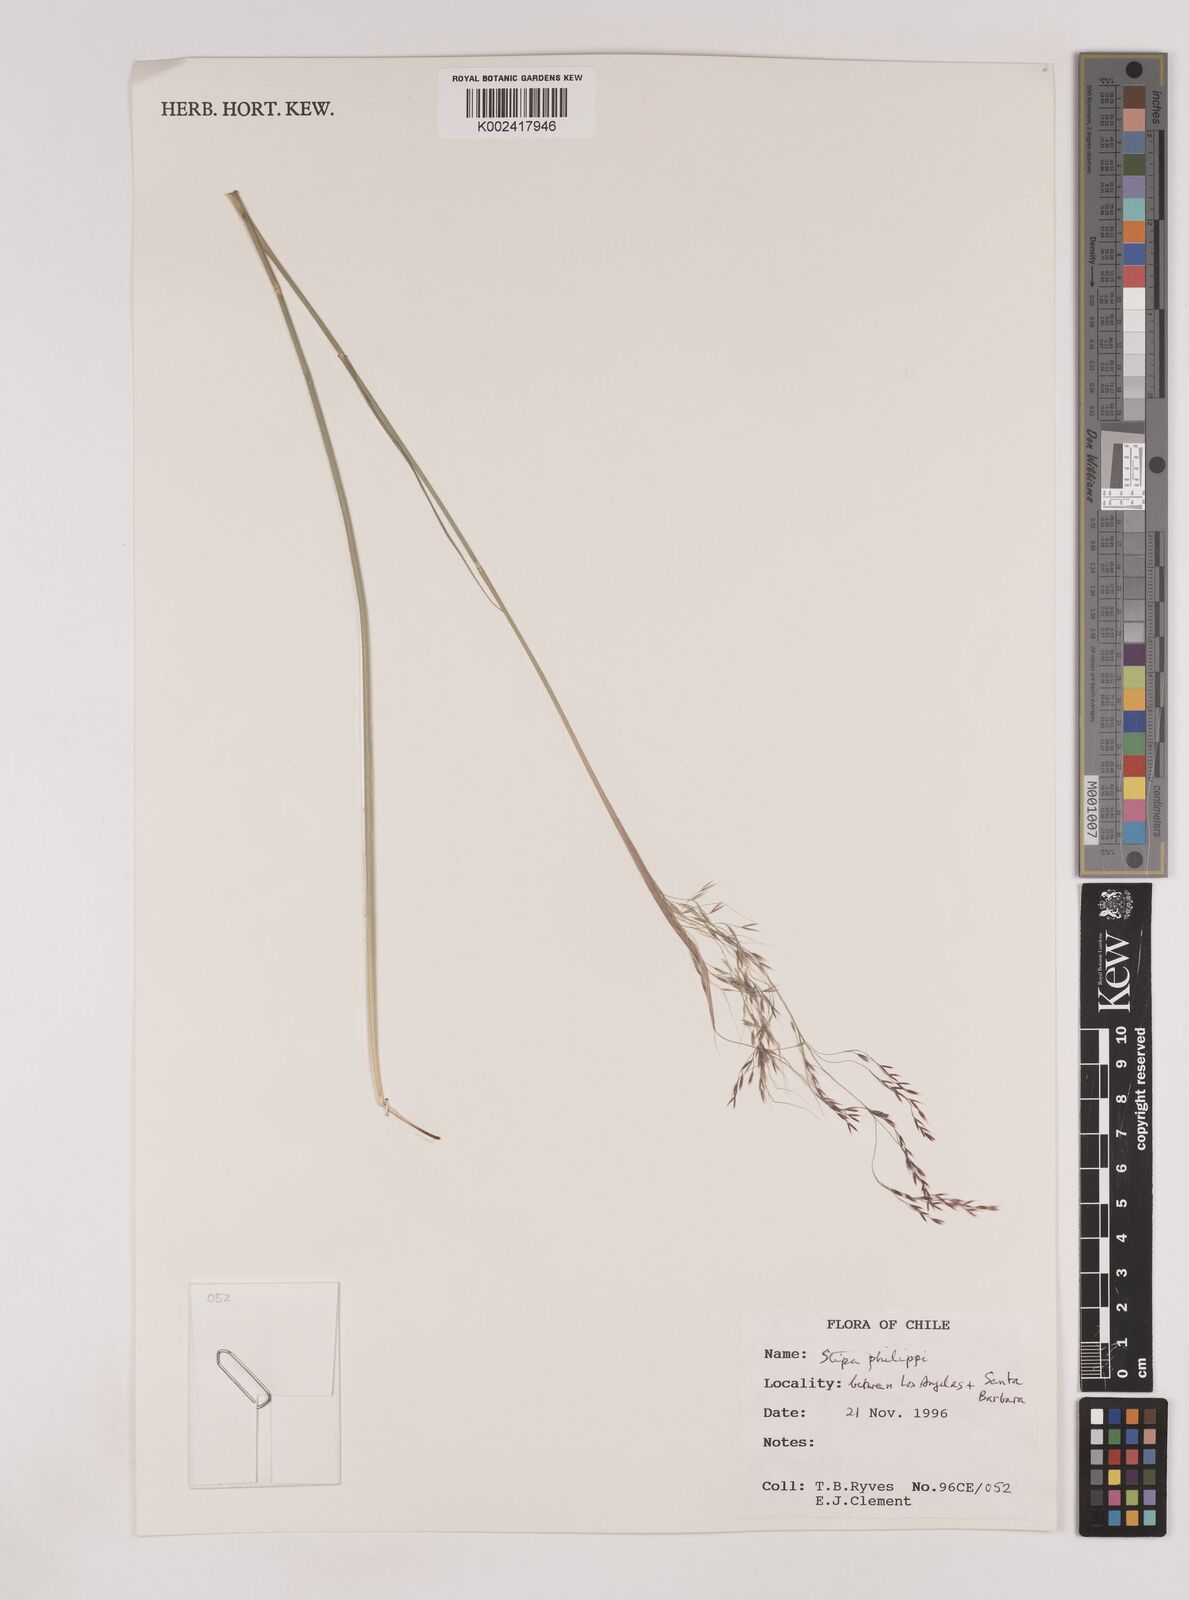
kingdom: Plantae
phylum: Tracheophyta
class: Liliopsida
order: Poales
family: Poaceae
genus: Nassella
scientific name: Nassella philippii
